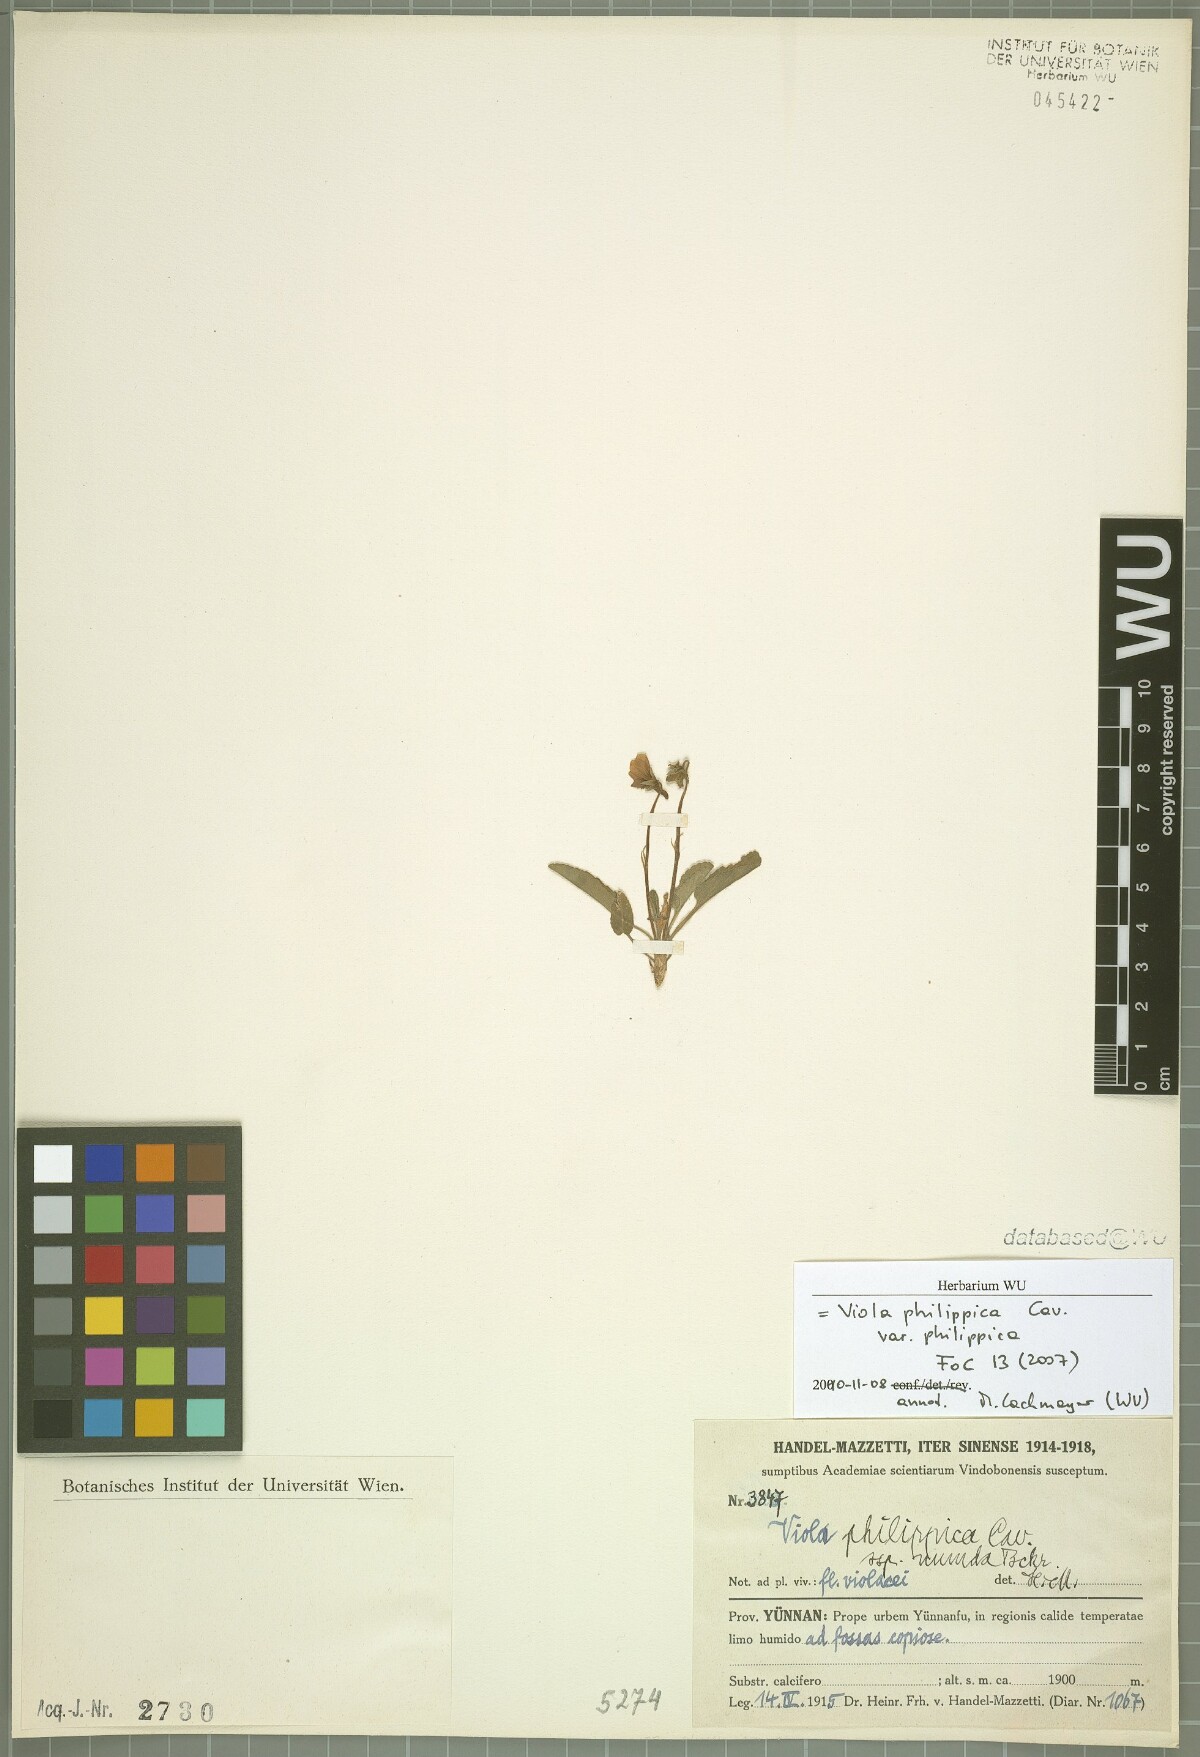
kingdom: Plantae
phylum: Tracheophyta
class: Magnoliopsida
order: Malpighiales
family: Violaceae
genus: Viola
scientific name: Viola philippica
